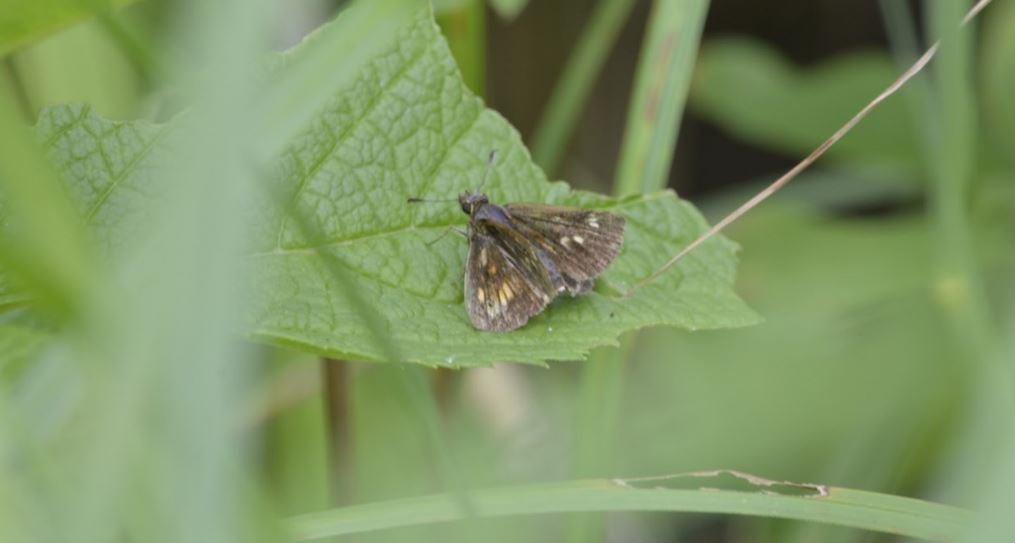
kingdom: Animalia
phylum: Arthropoda
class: Insecta
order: Lepidoptera
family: Hesperiidae
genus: Poanes
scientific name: Poanes viator
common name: Broad-winged Skipper
